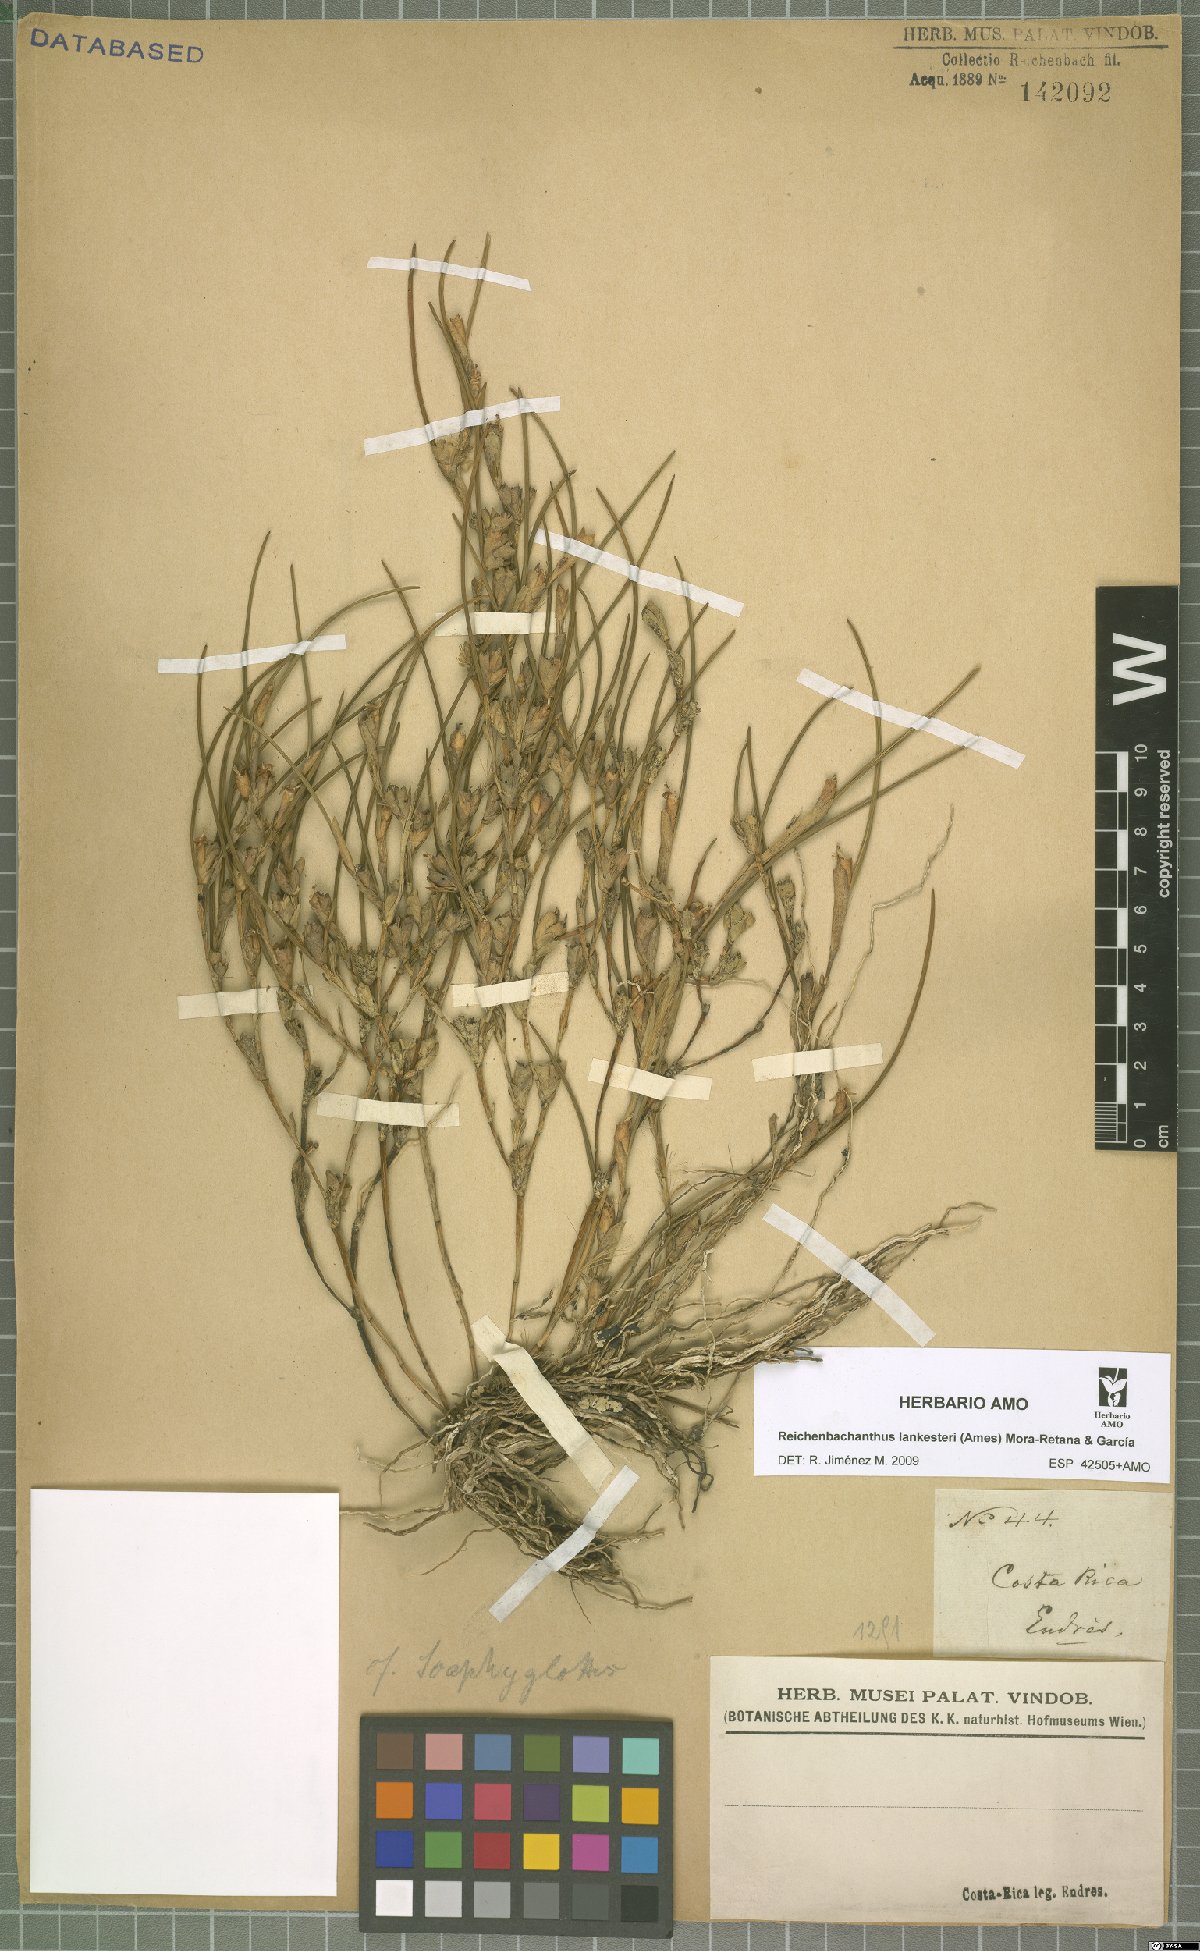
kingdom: Plantae
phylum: Tracheophyta
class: Liliopsida
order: Asparagales
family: Orchidaceae
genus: Scaphyglottis
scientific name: Scaphyglottis subulata
